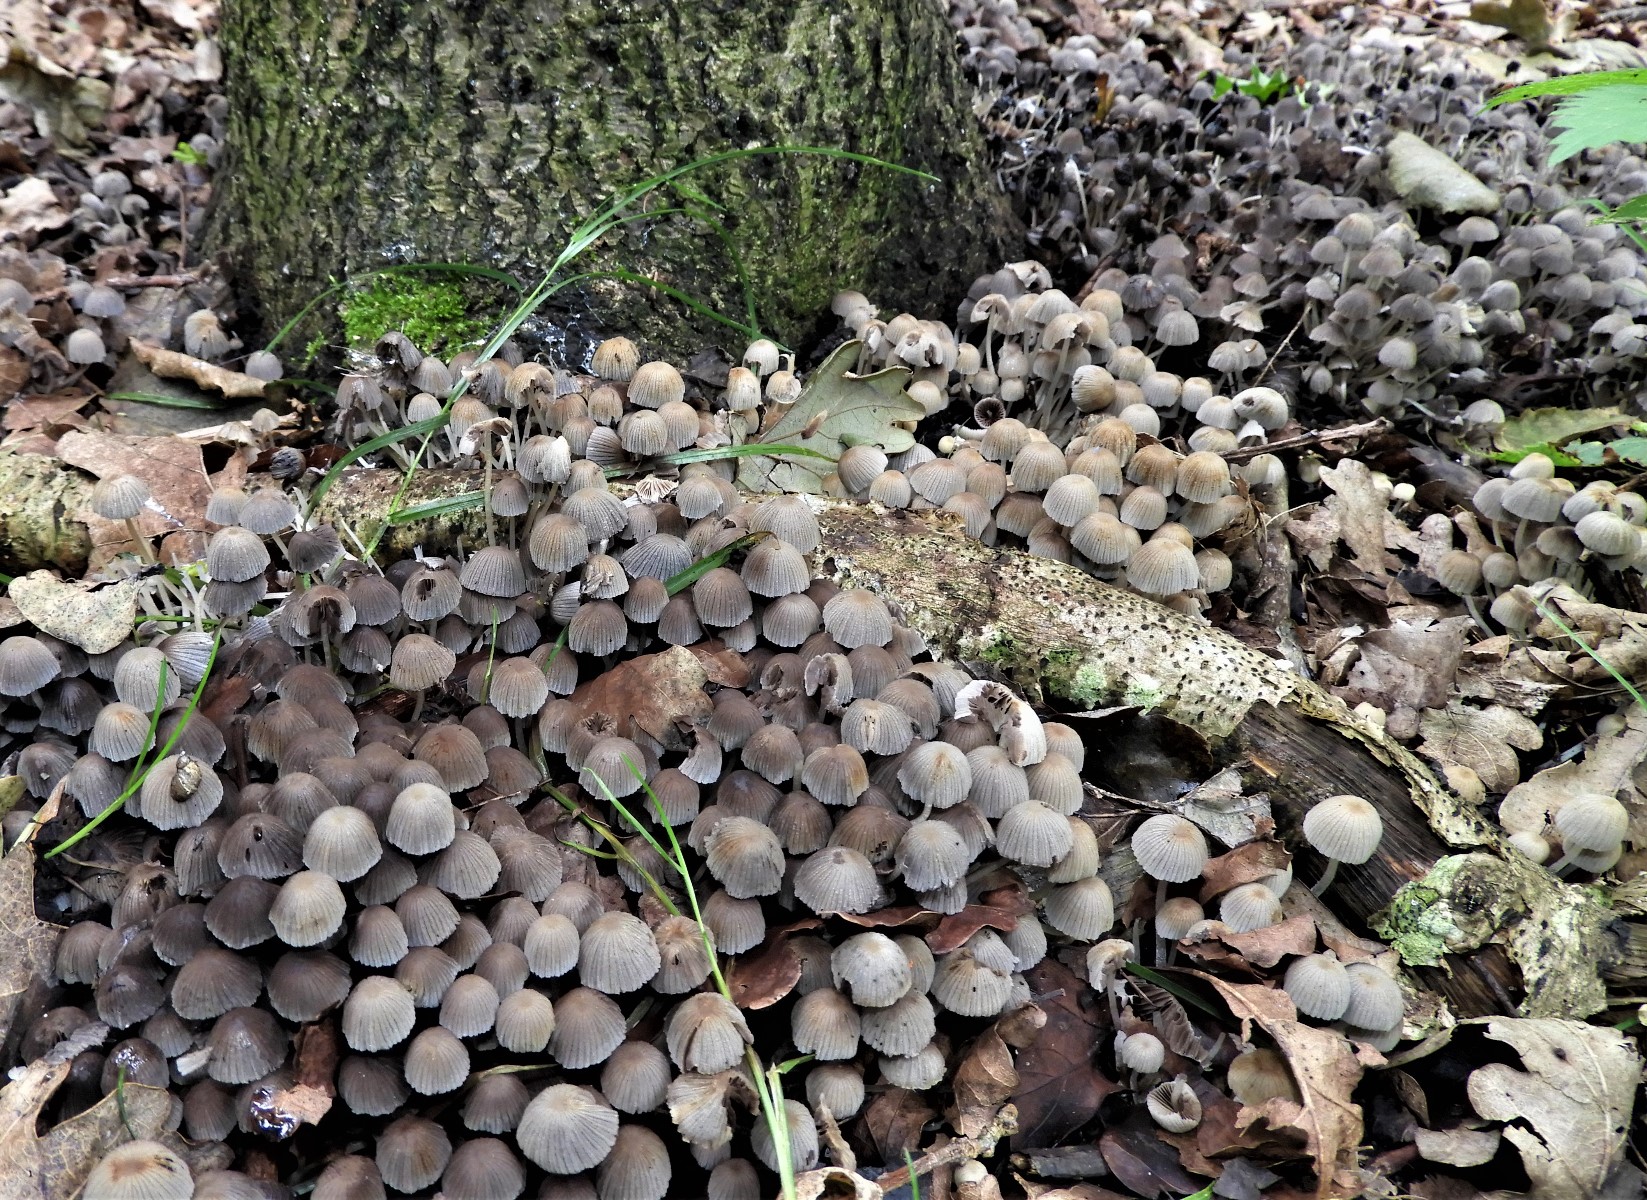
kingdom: Fungi
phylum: Basidiomycota
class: Agaricomycetes
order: Agaricales
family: Psathyrellaceae
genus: Coprinellus
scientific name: Coprinellus disseminatus
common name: bredsået blækhat
